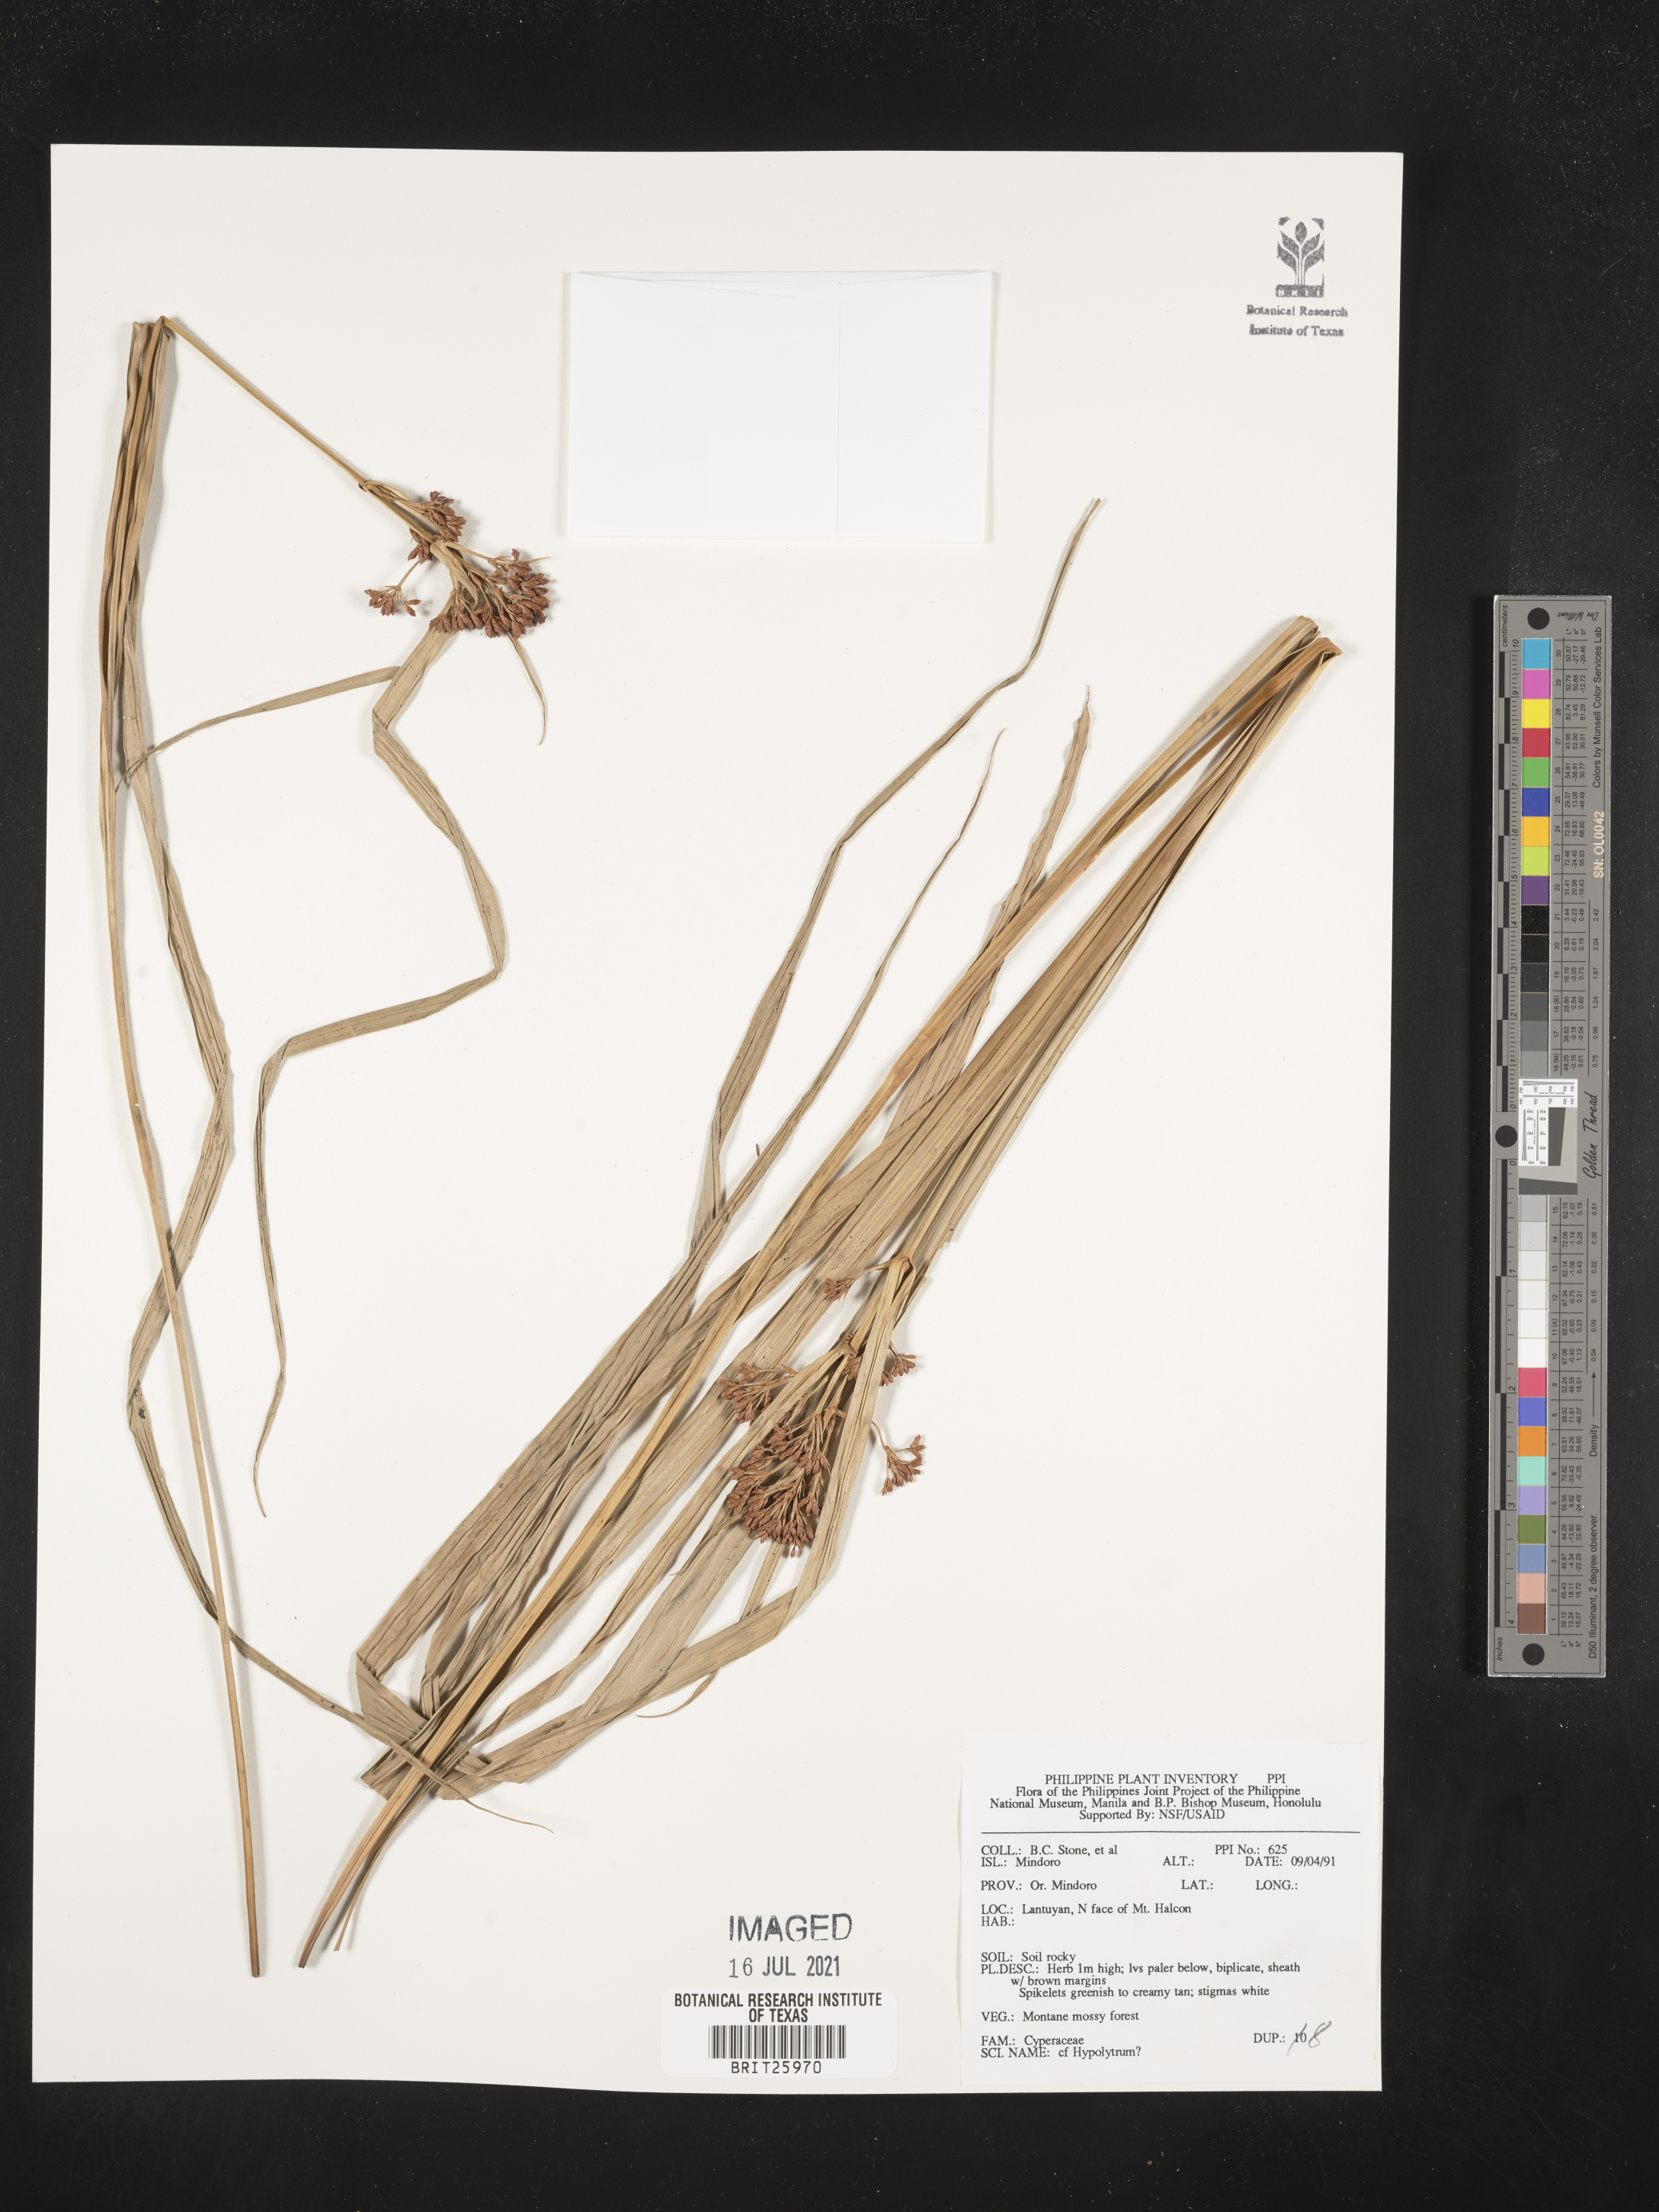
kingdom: Plantae
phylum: Tracheophyta
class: Liliopsida
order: Poales
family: Cyperaceae
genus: Hypolytrum
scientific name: Hypolytrum
